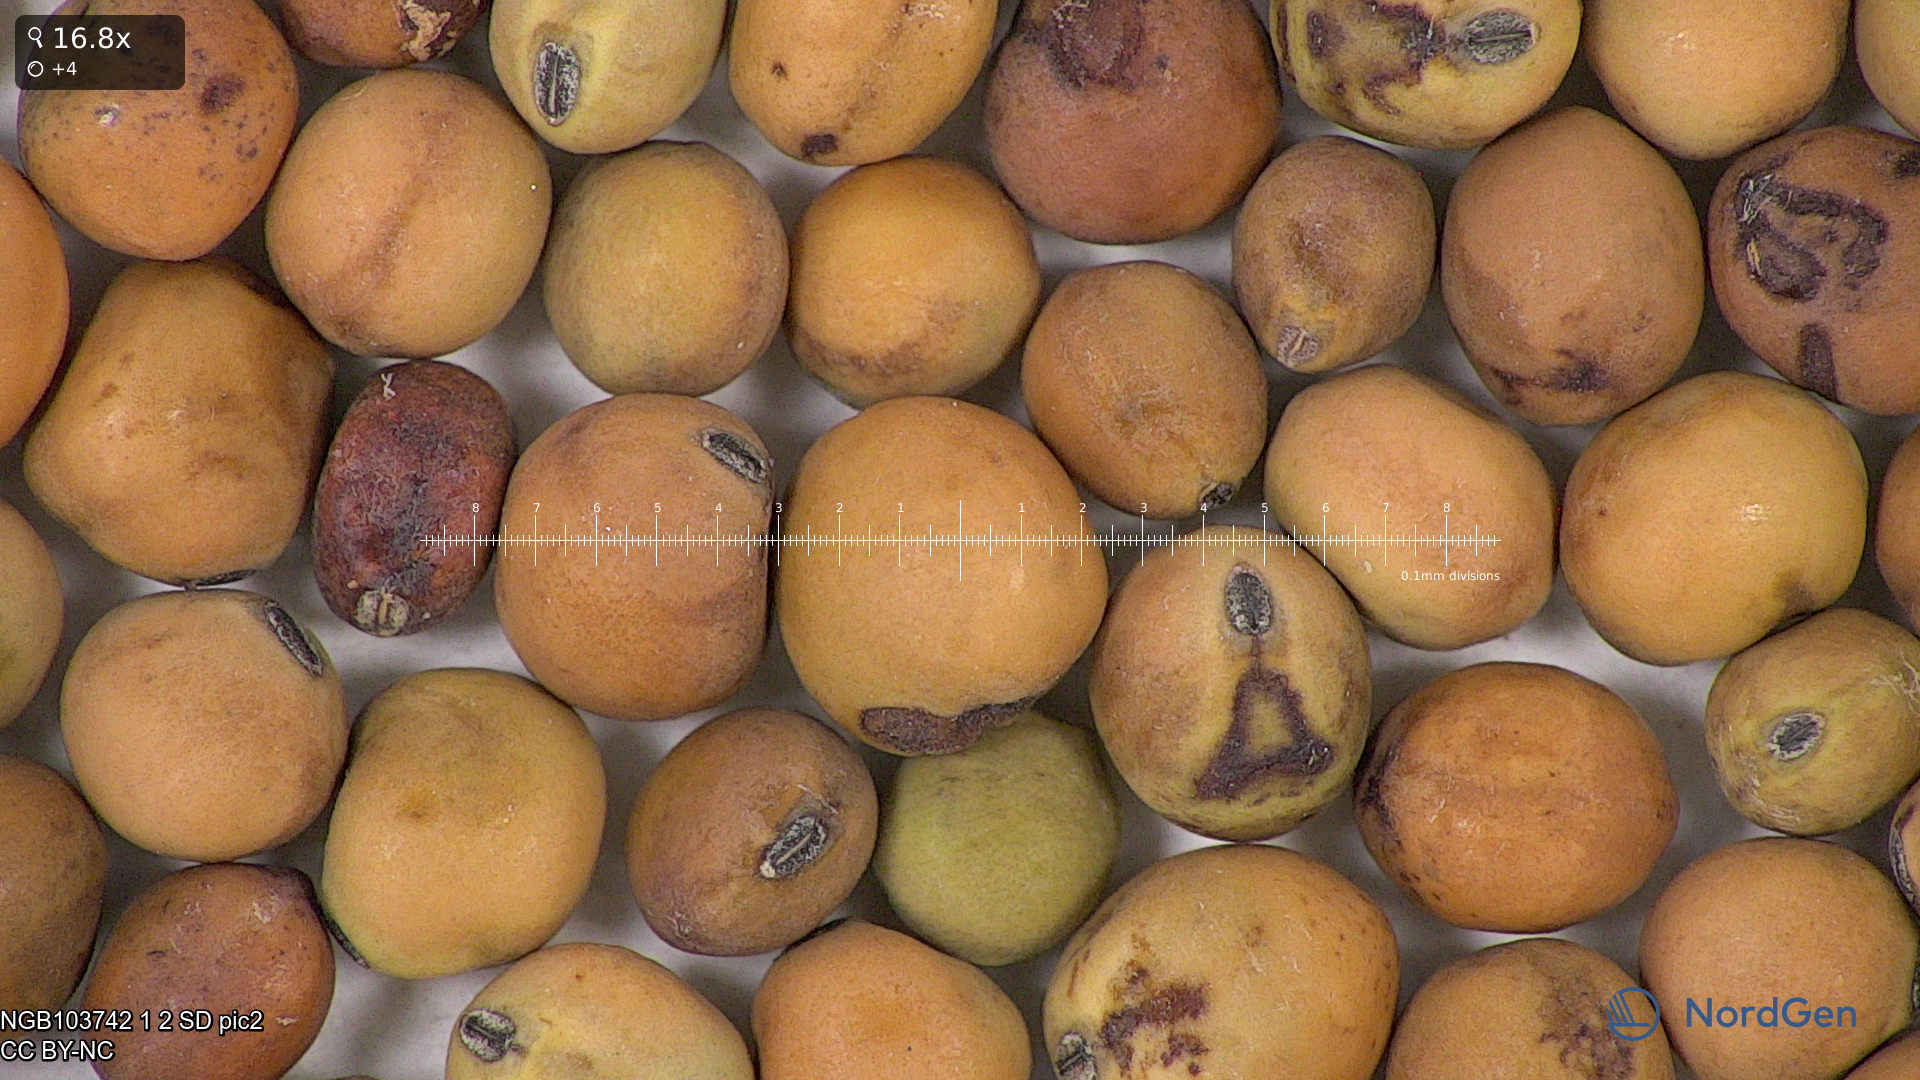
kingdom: Plantae
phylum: Tracheophyta
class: Magnoliopsida
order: Fabales
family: Fabaceae
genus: Lathyrus
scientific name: Lathyrus oleraceus
